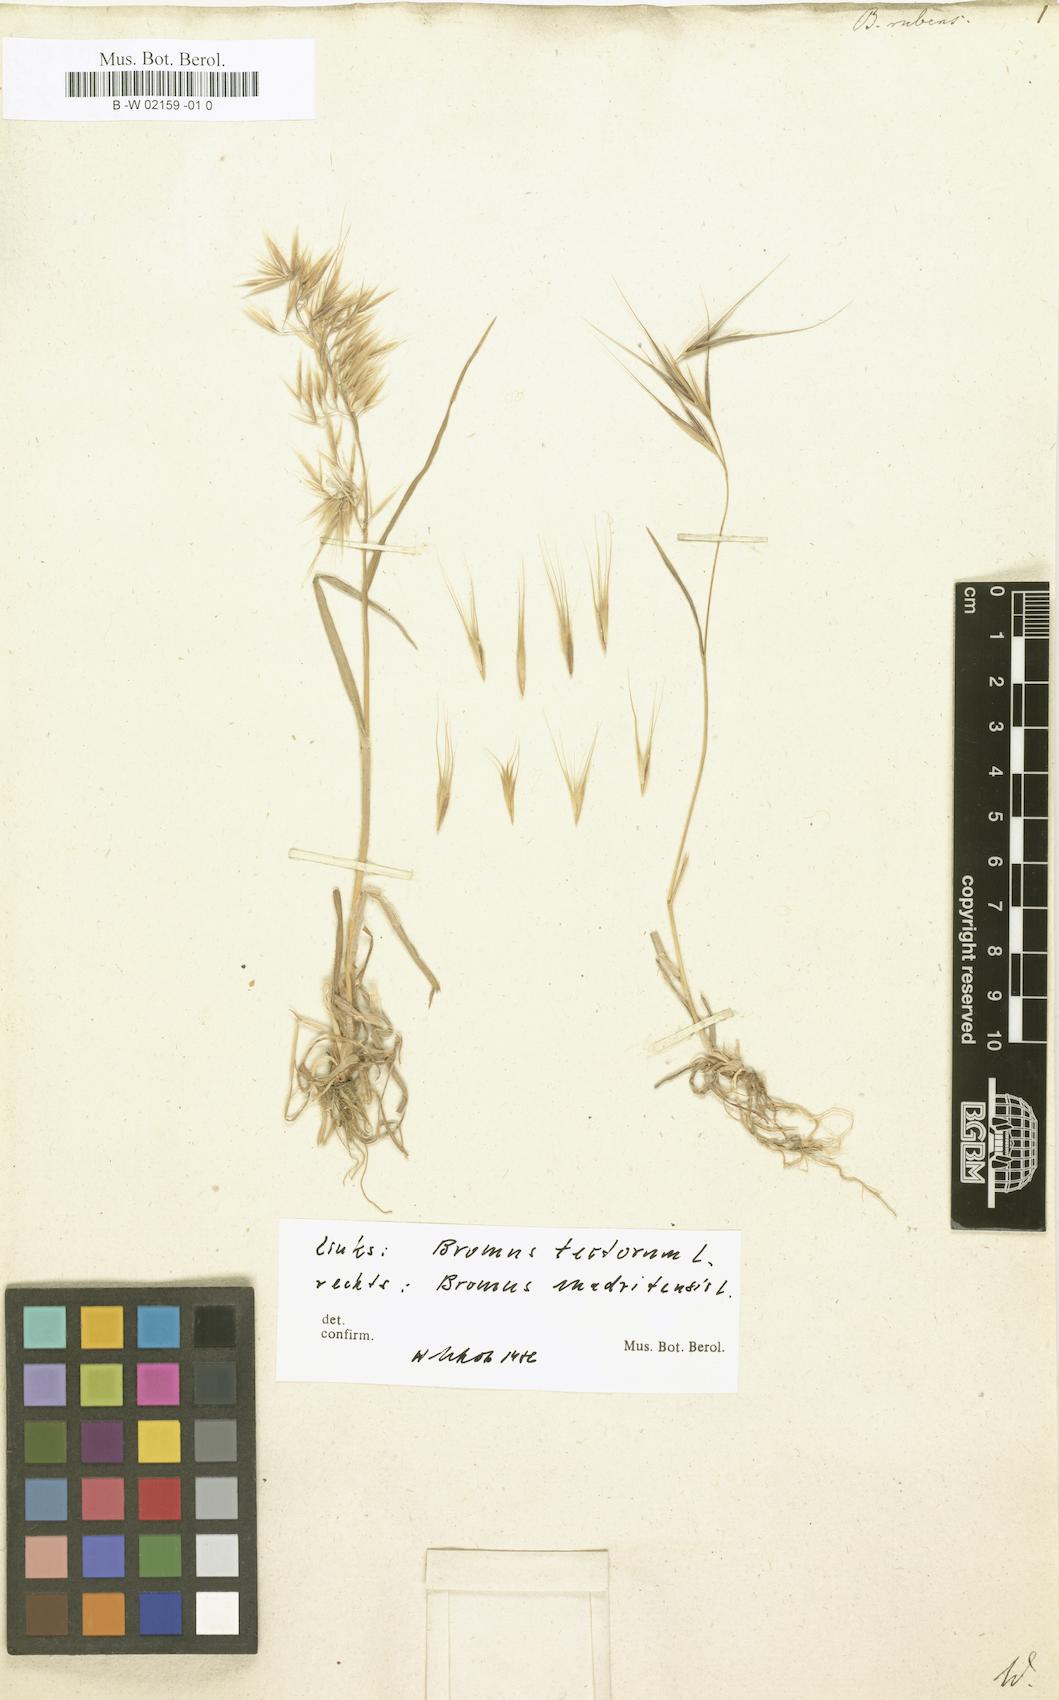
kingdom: Plantae
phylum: Tracheophyta
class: Liliopsida
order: Poales
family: Poaceae
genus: Bromus
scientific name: Bromus rubens
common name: Red brome
